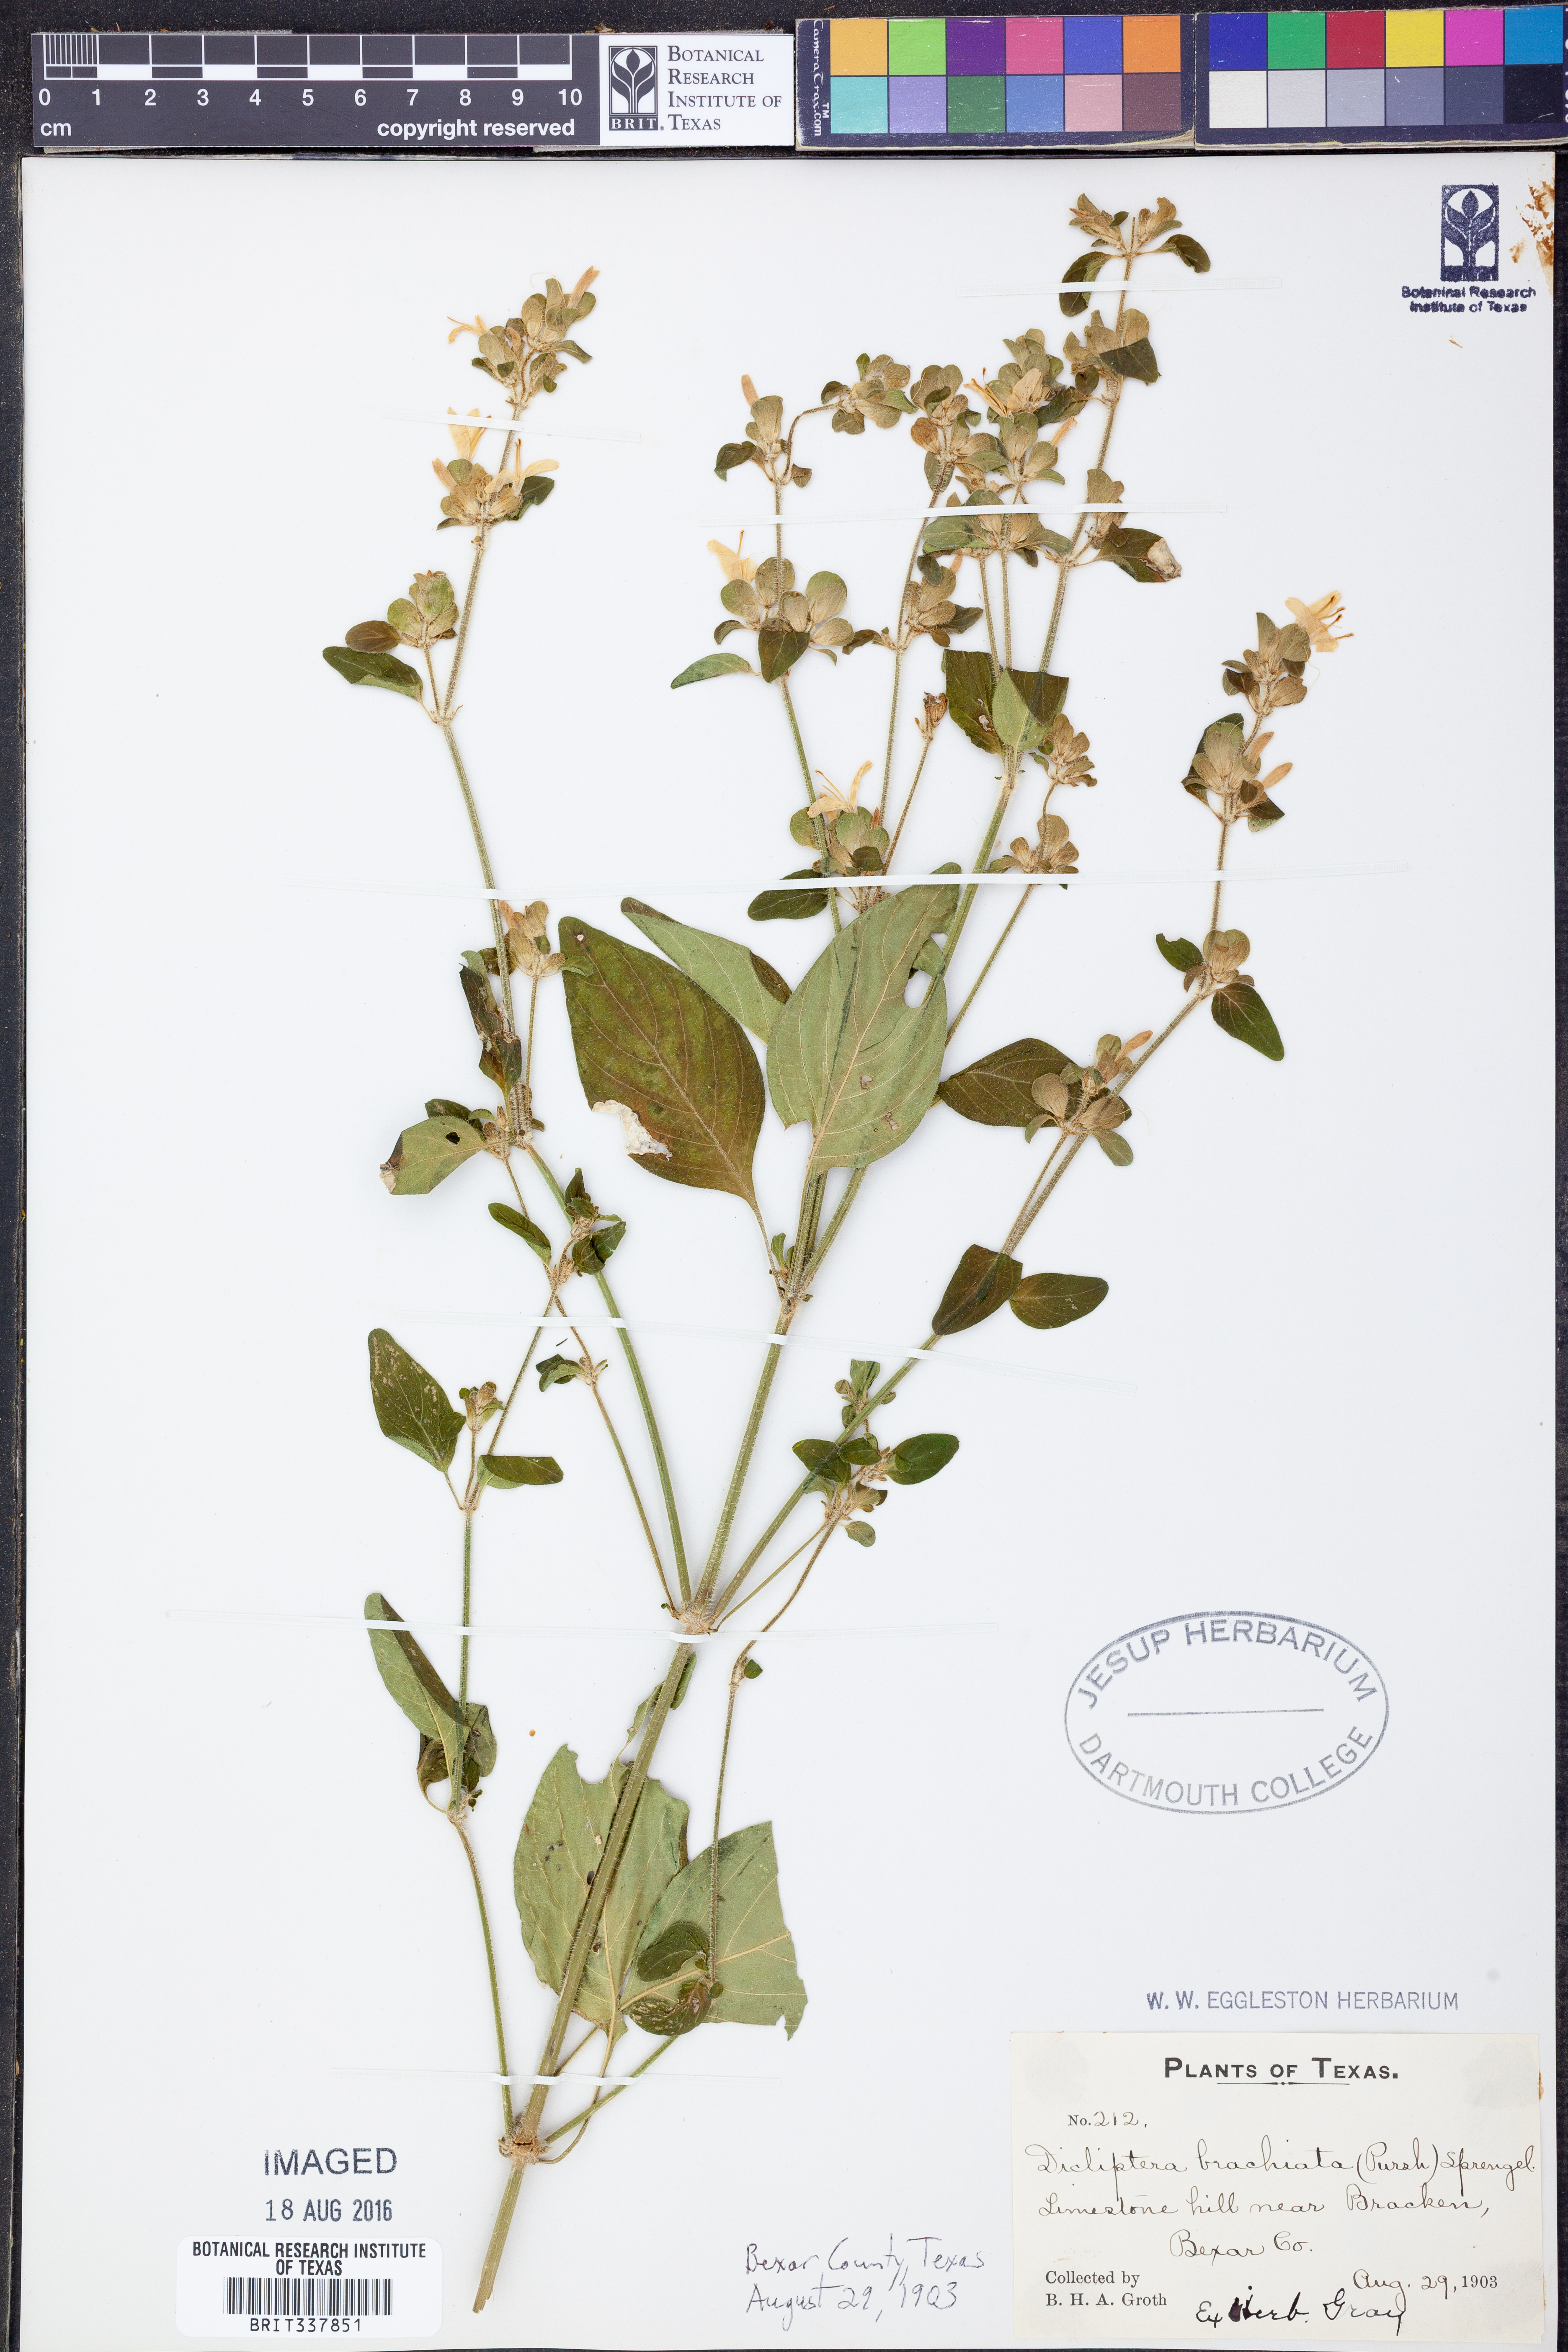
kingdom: Plantae
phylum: Tracheophyta
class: Magnoliopsida
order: Lamiales
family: Acanthaceae
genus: Dicliptera
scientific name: Dicliptera brachiata
